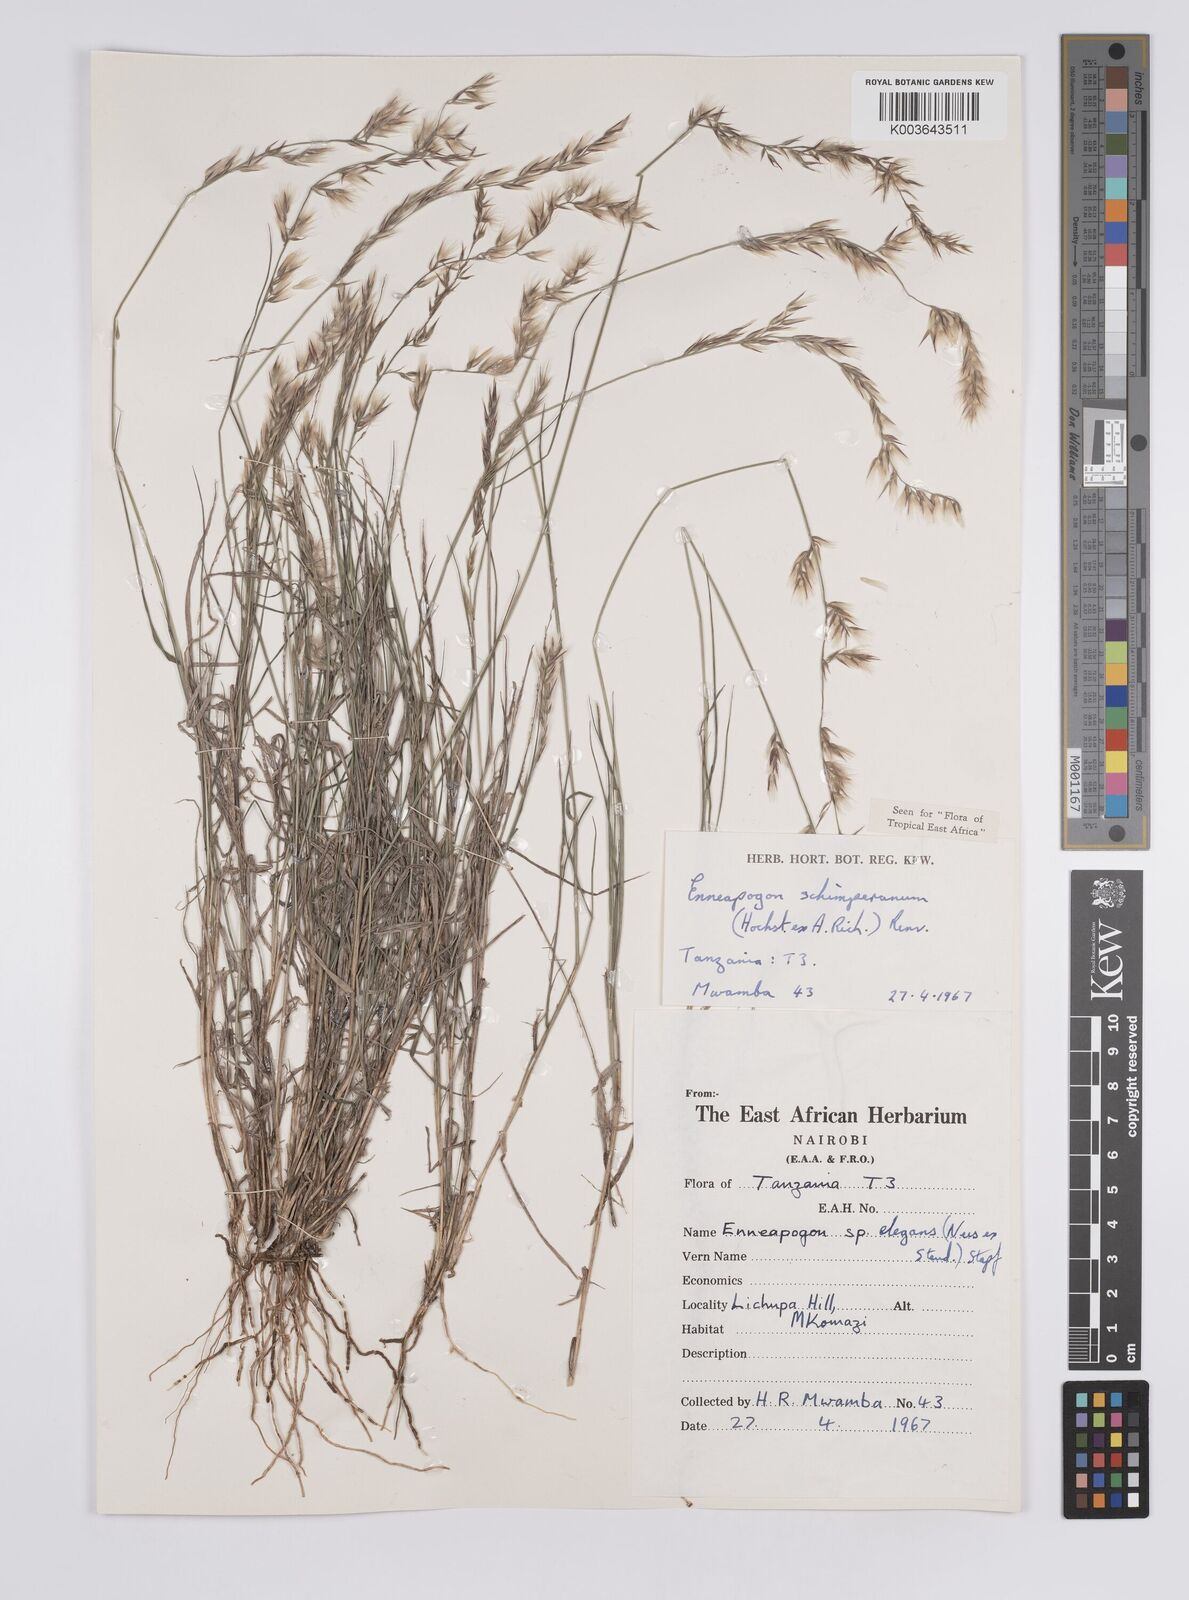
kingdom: Plantae
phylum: Tracheophyta
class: Liliopsida
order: Poales
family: Poaceae
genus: Enneapogon
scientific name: Enneapogon persicus
